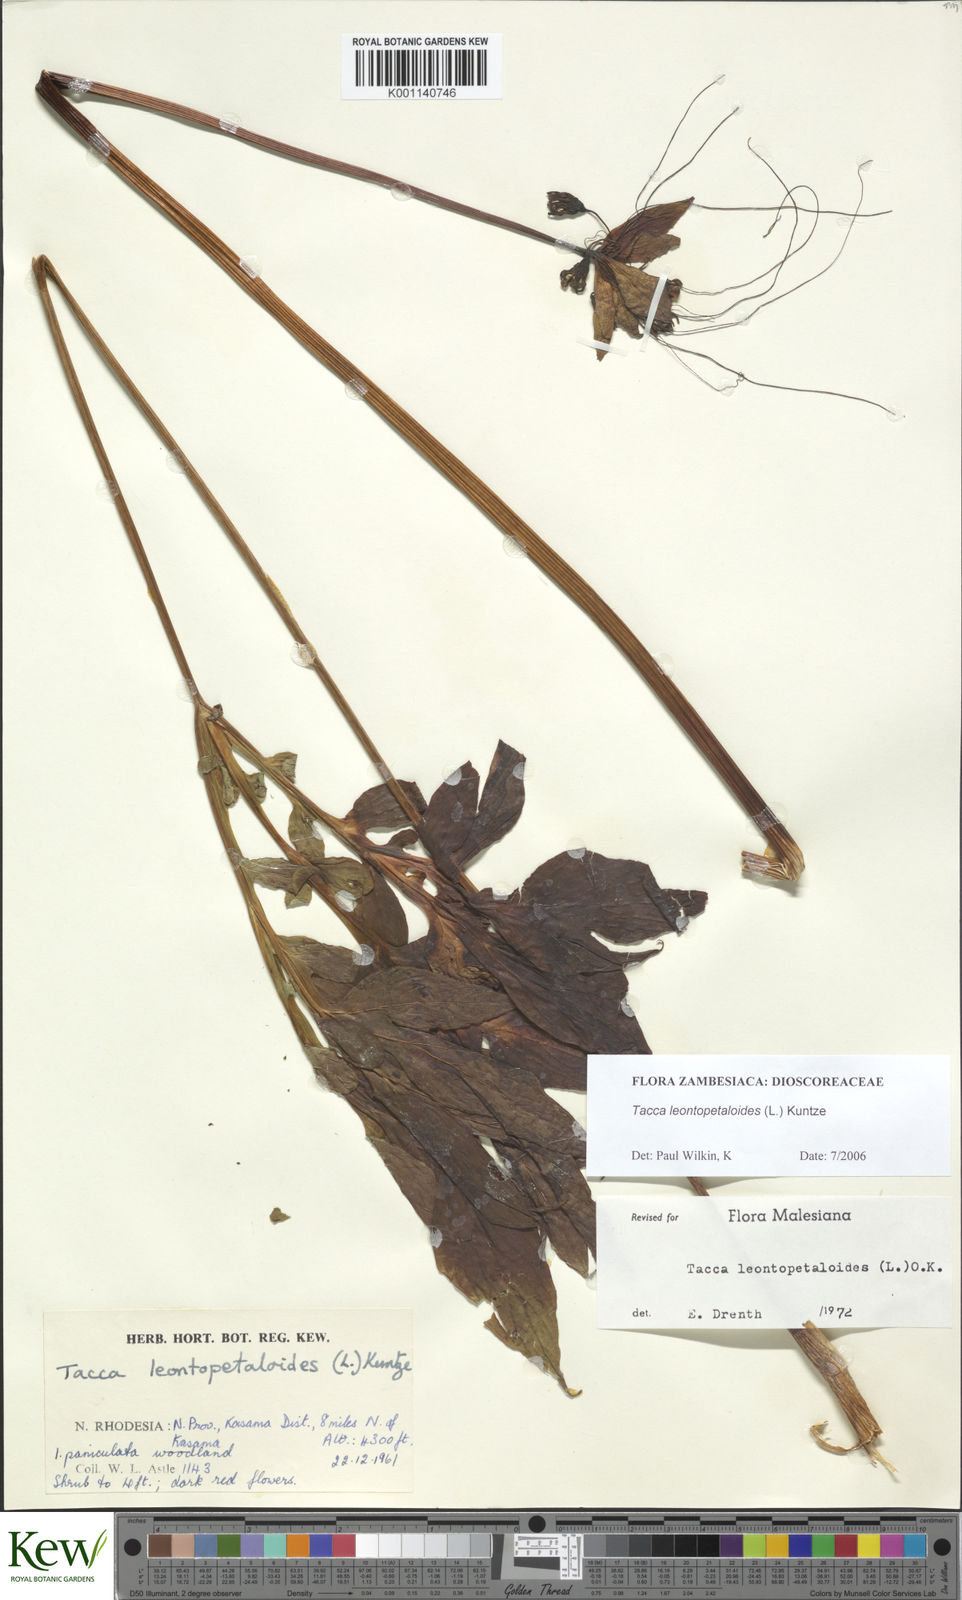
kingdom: Plantae
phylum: Tracheophyta
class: Liliopsida
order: Dioscoreales
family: Dioscoreaceae
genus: Tacca
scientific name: Tacca leontopetaloides
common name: Arrowroot
